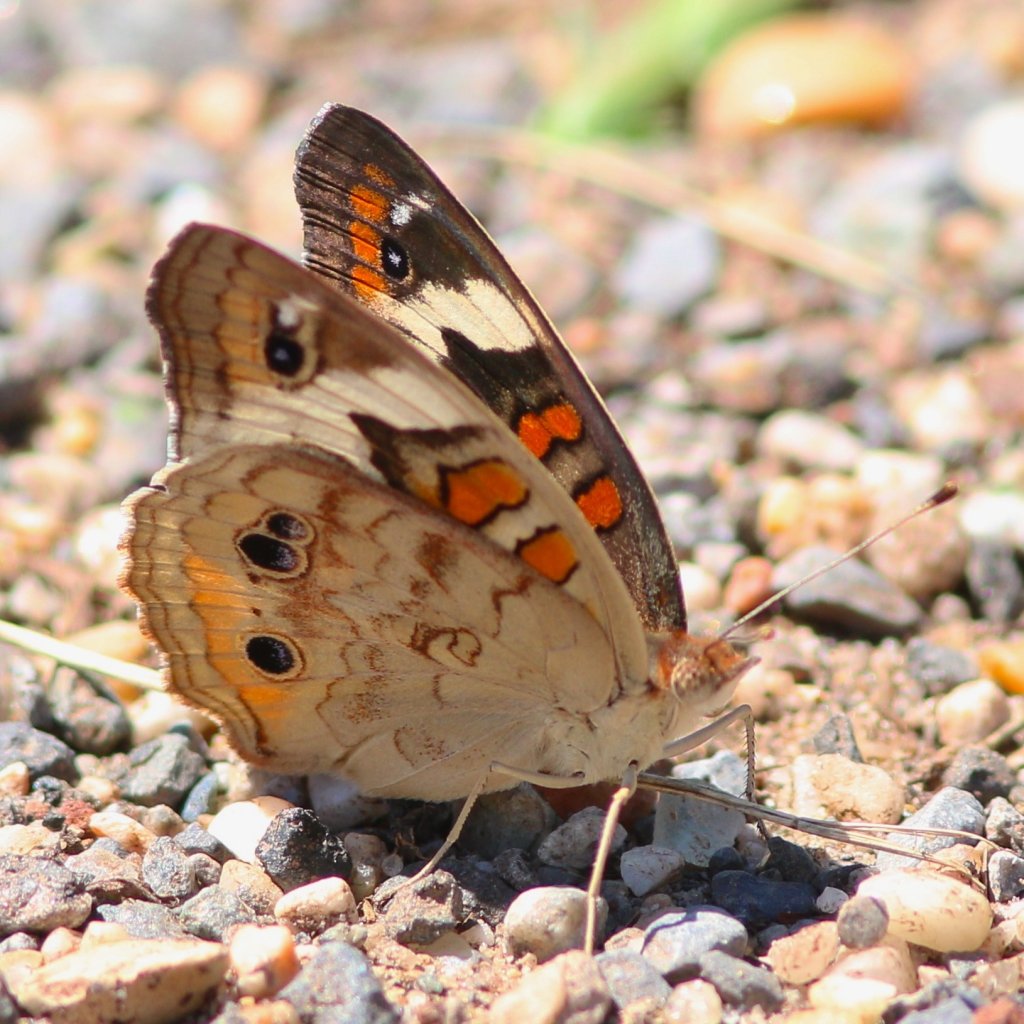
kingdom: Animalia
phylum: Arthropoda
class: Insecta
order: Lepidoptera
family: Nymphalidae
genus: Junonia
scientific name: Junonia coenia
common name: Common Buckeye
